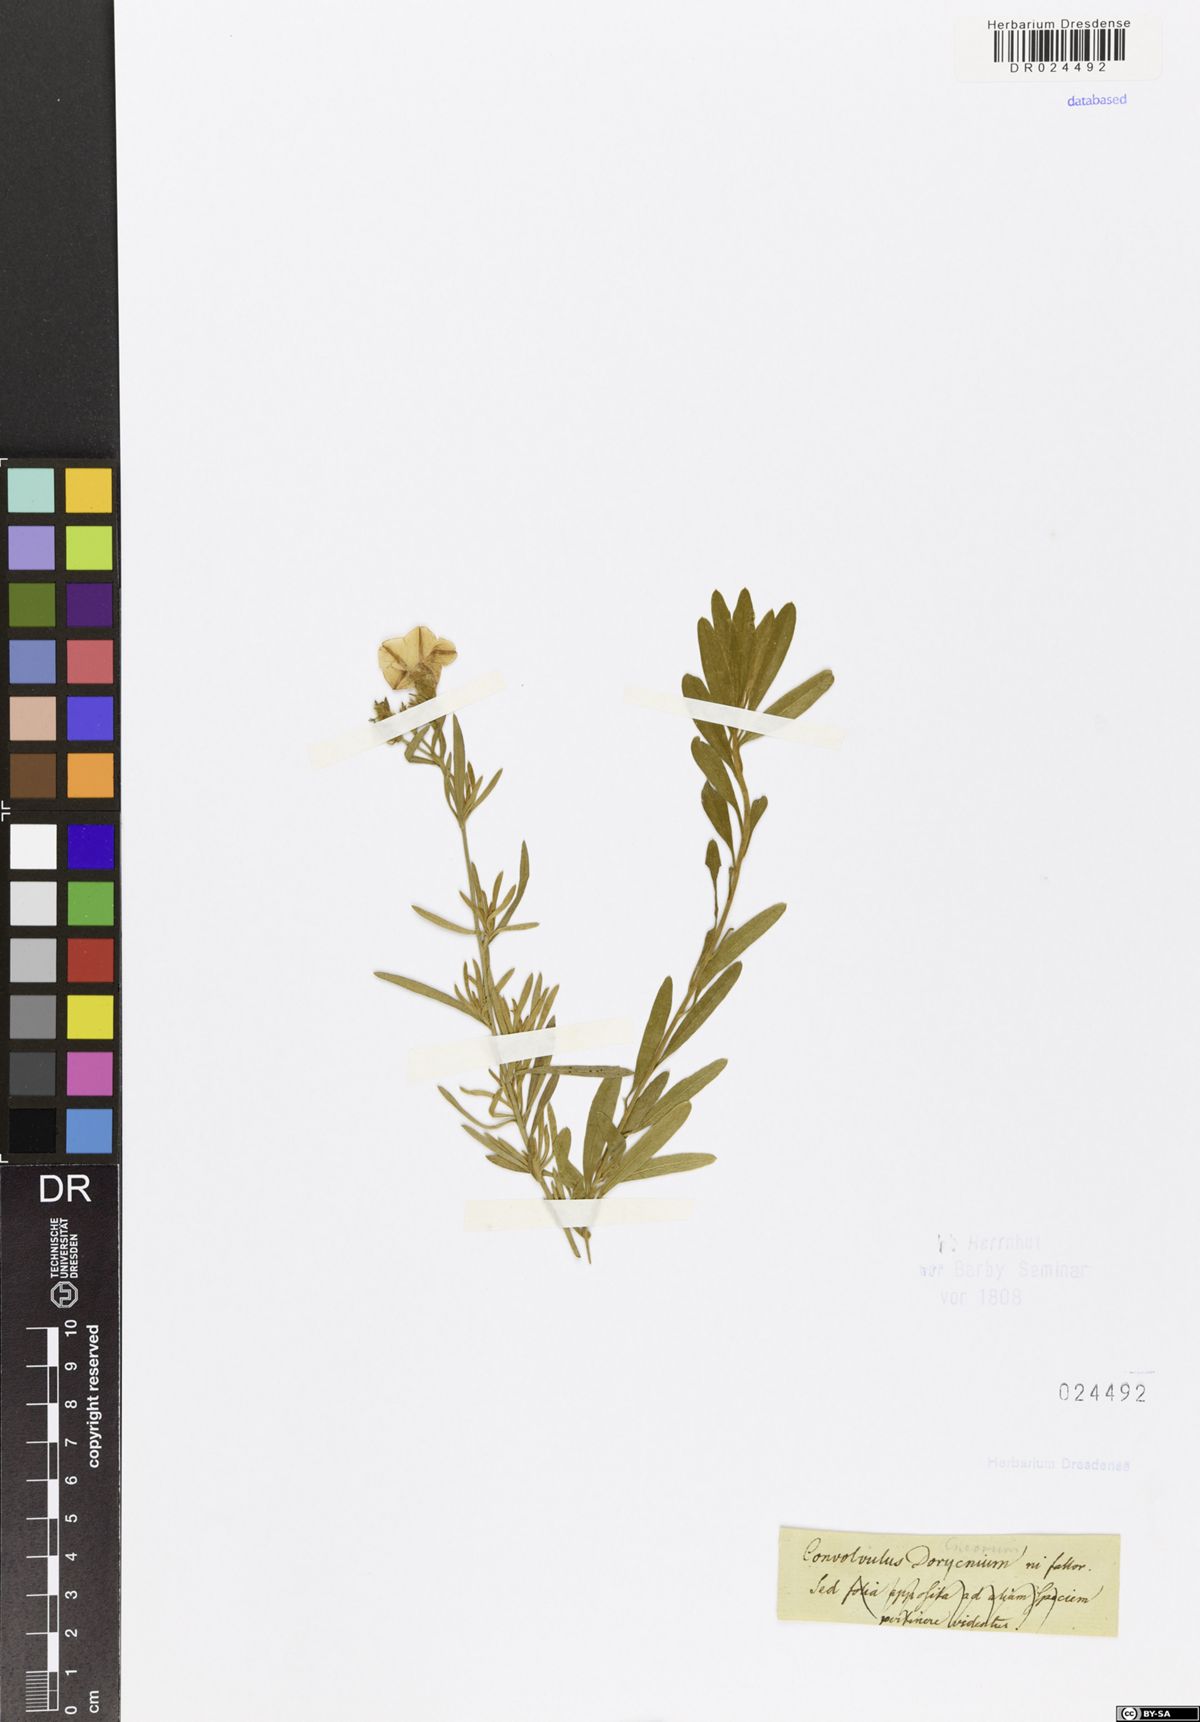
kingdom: Plantae
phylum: Tracheophyta
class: Magnoliopsida
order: Solanales
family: Convolvulaceae
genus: Convolvulus
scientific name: Convolvulus cneorum
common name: Silverbush
